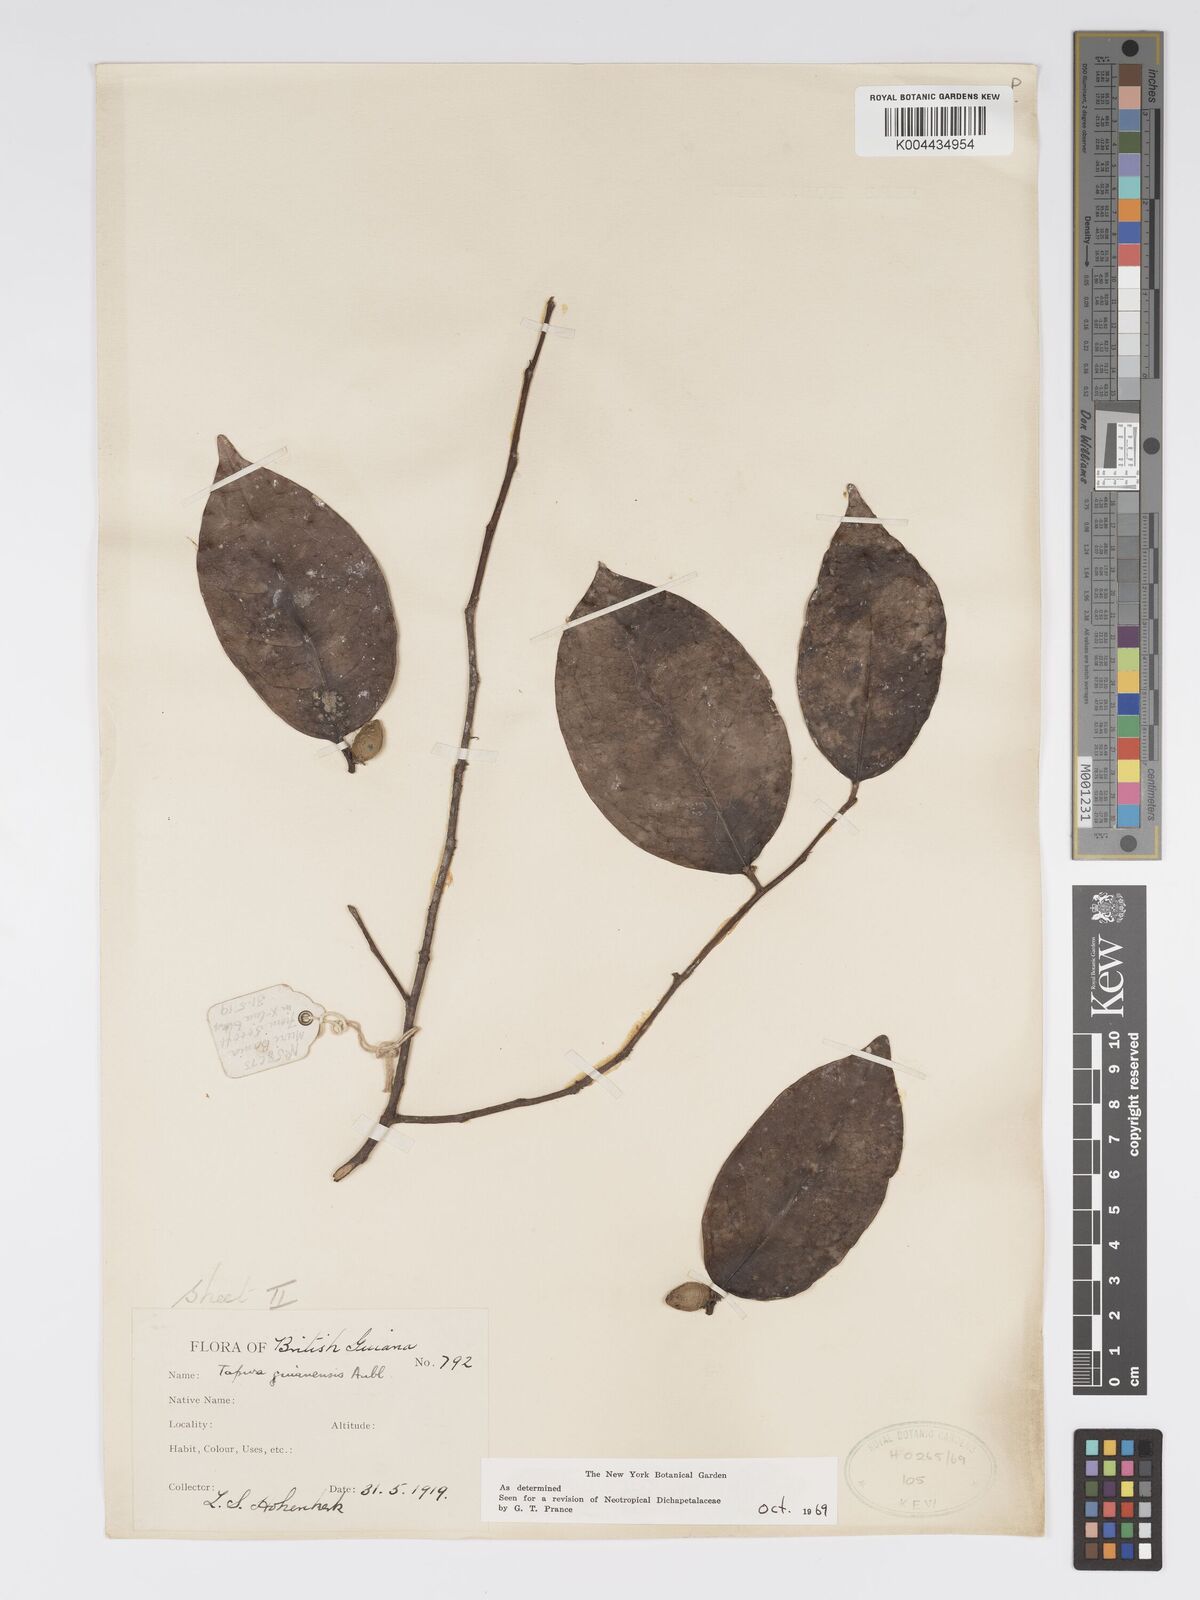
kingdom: Plantae
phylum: Tracheophyta
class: Magnoliopsida
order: Malpighiales
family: Dichapetalaceae
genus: Tapura
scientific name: Tapura guianensis
